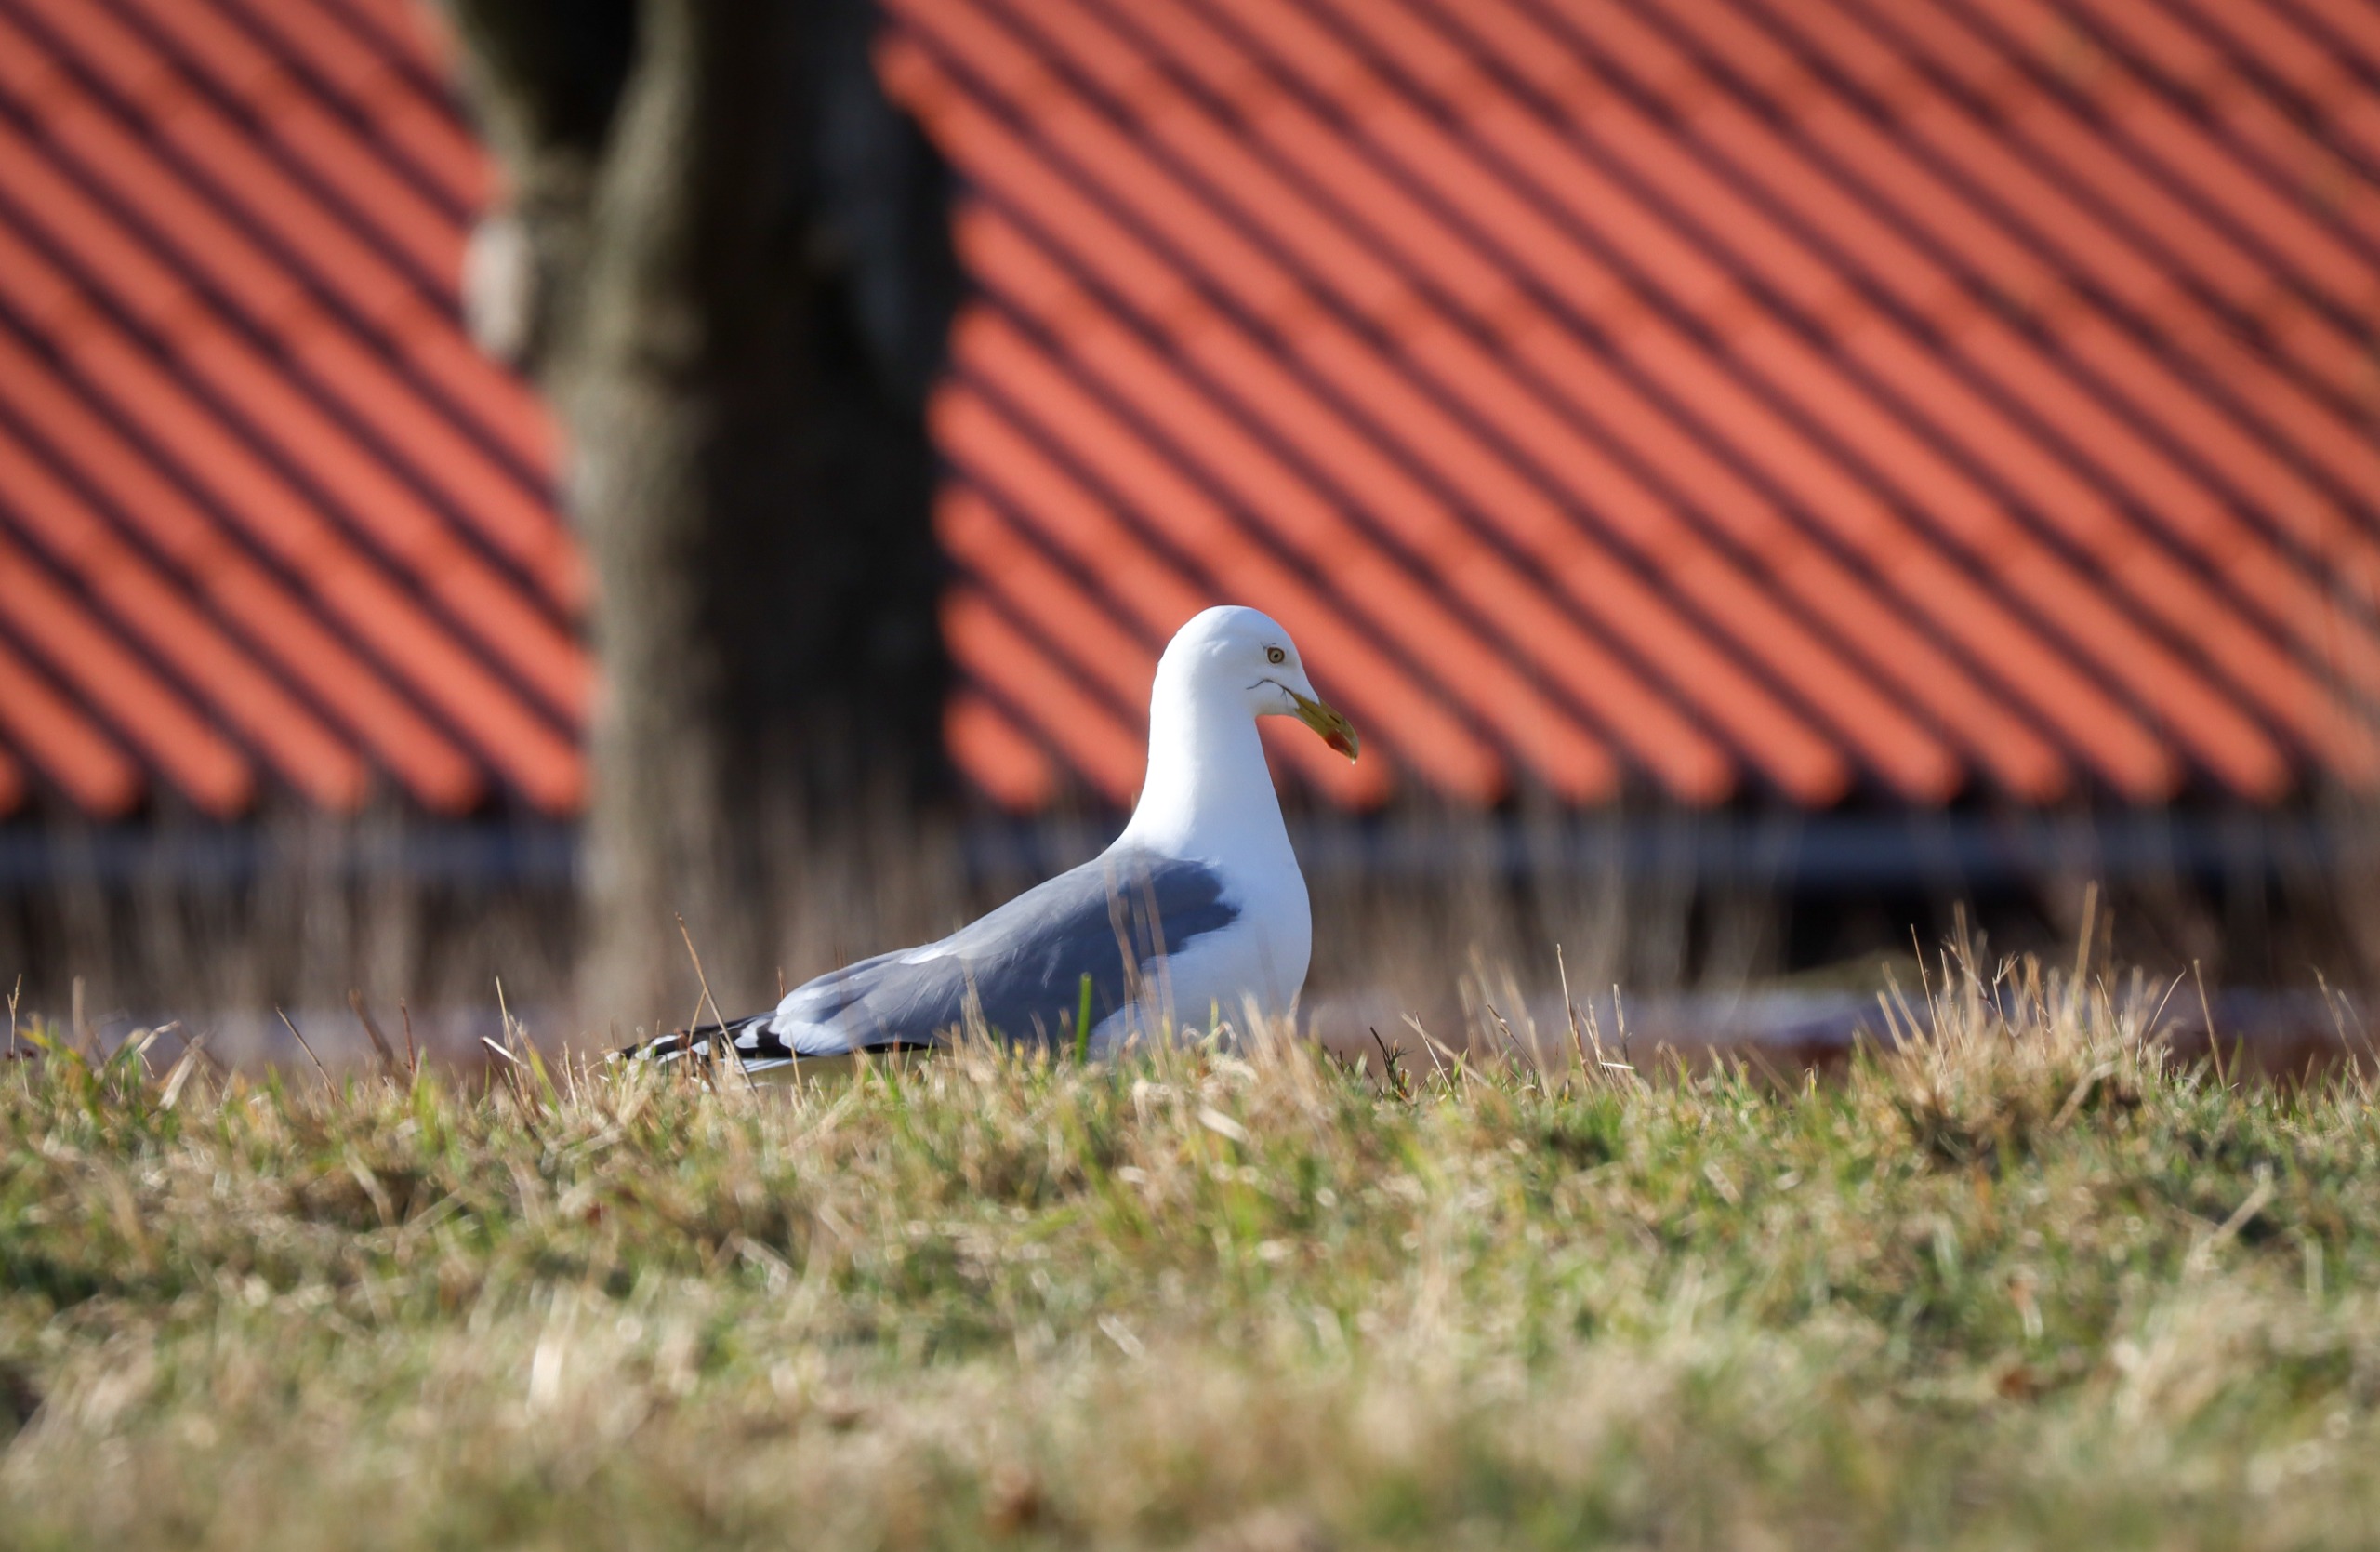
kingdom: Animalia
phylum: Chordata
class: Aves
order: Charadriiformes
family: Laridae
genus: Larus
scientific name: Larus argentatus
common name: Sølvmåge
